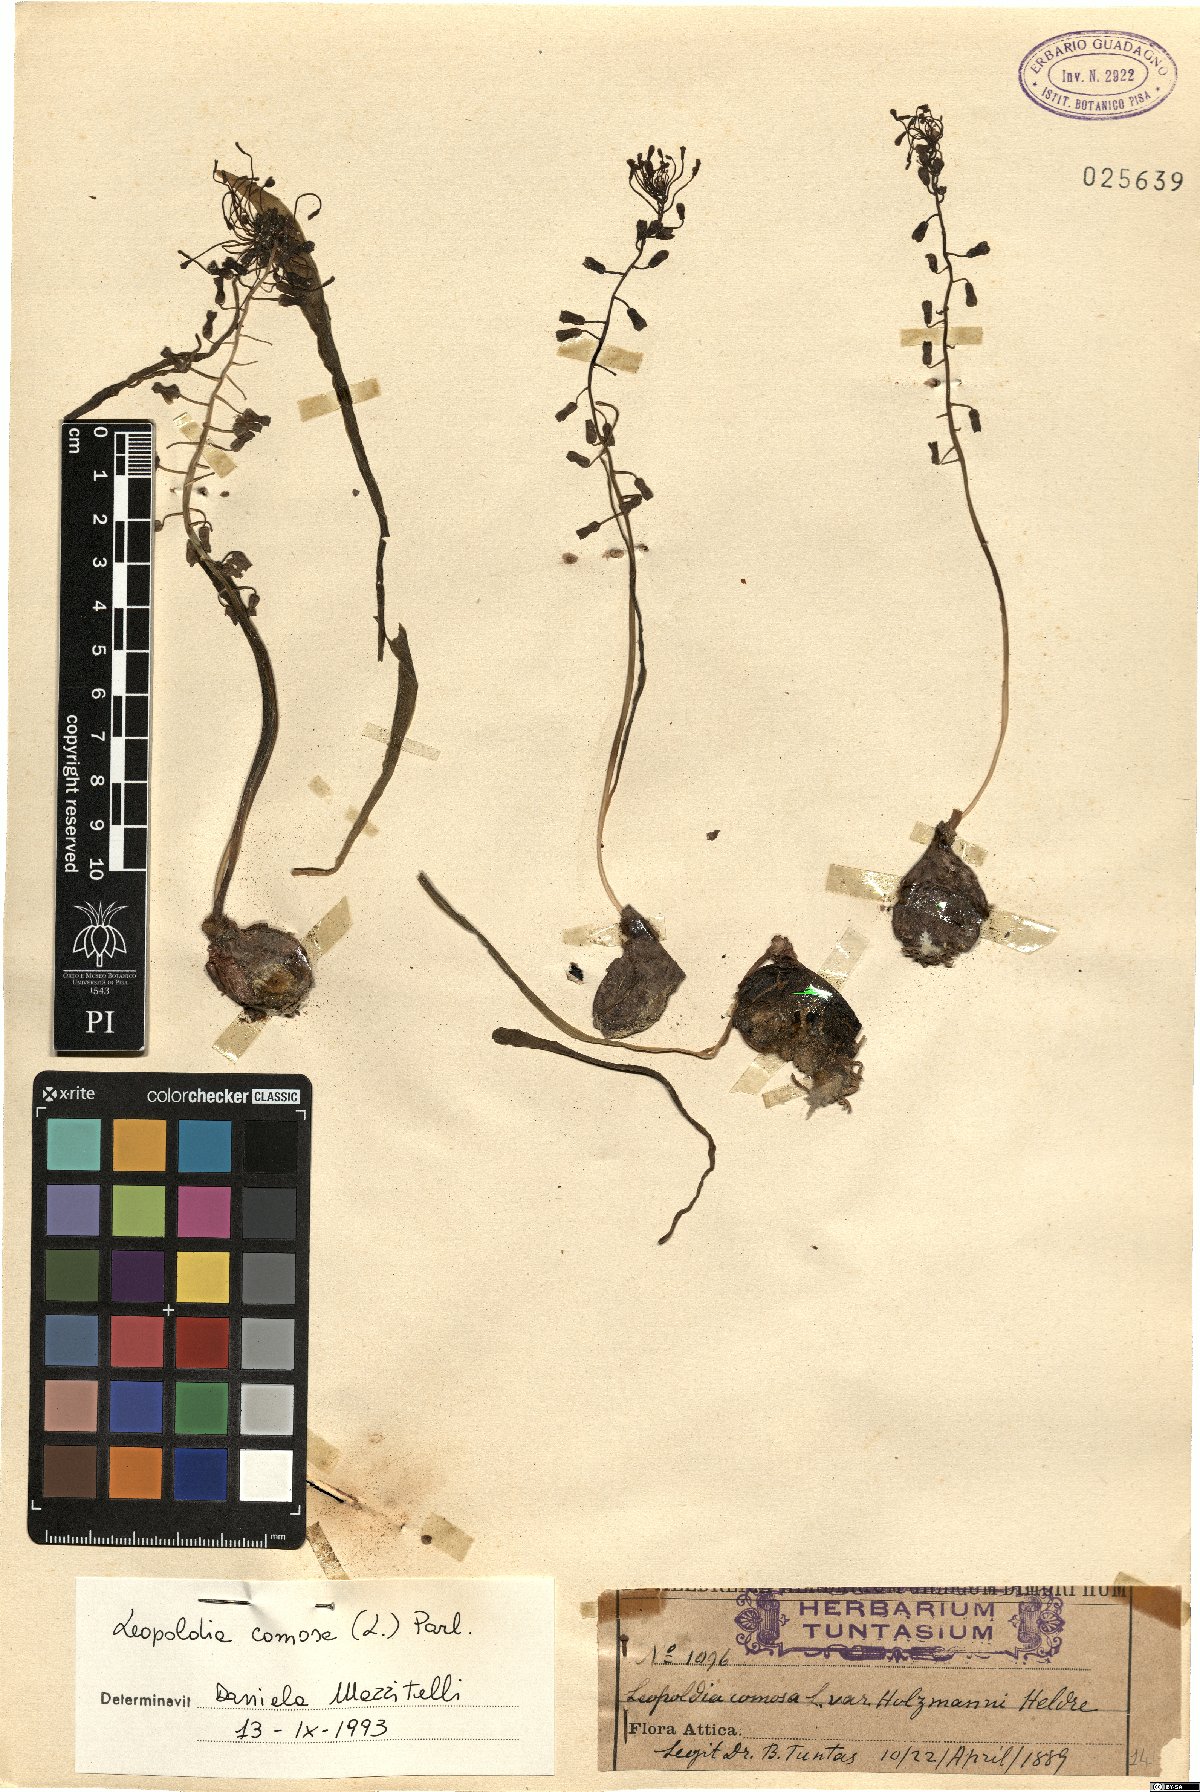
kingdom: Plantae
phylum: Tracheophyta
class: Liliopsida
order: Asparagales
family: Asparagaceae
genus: Muscari
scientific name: Muscari comosum
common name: Tassel hyacinth
